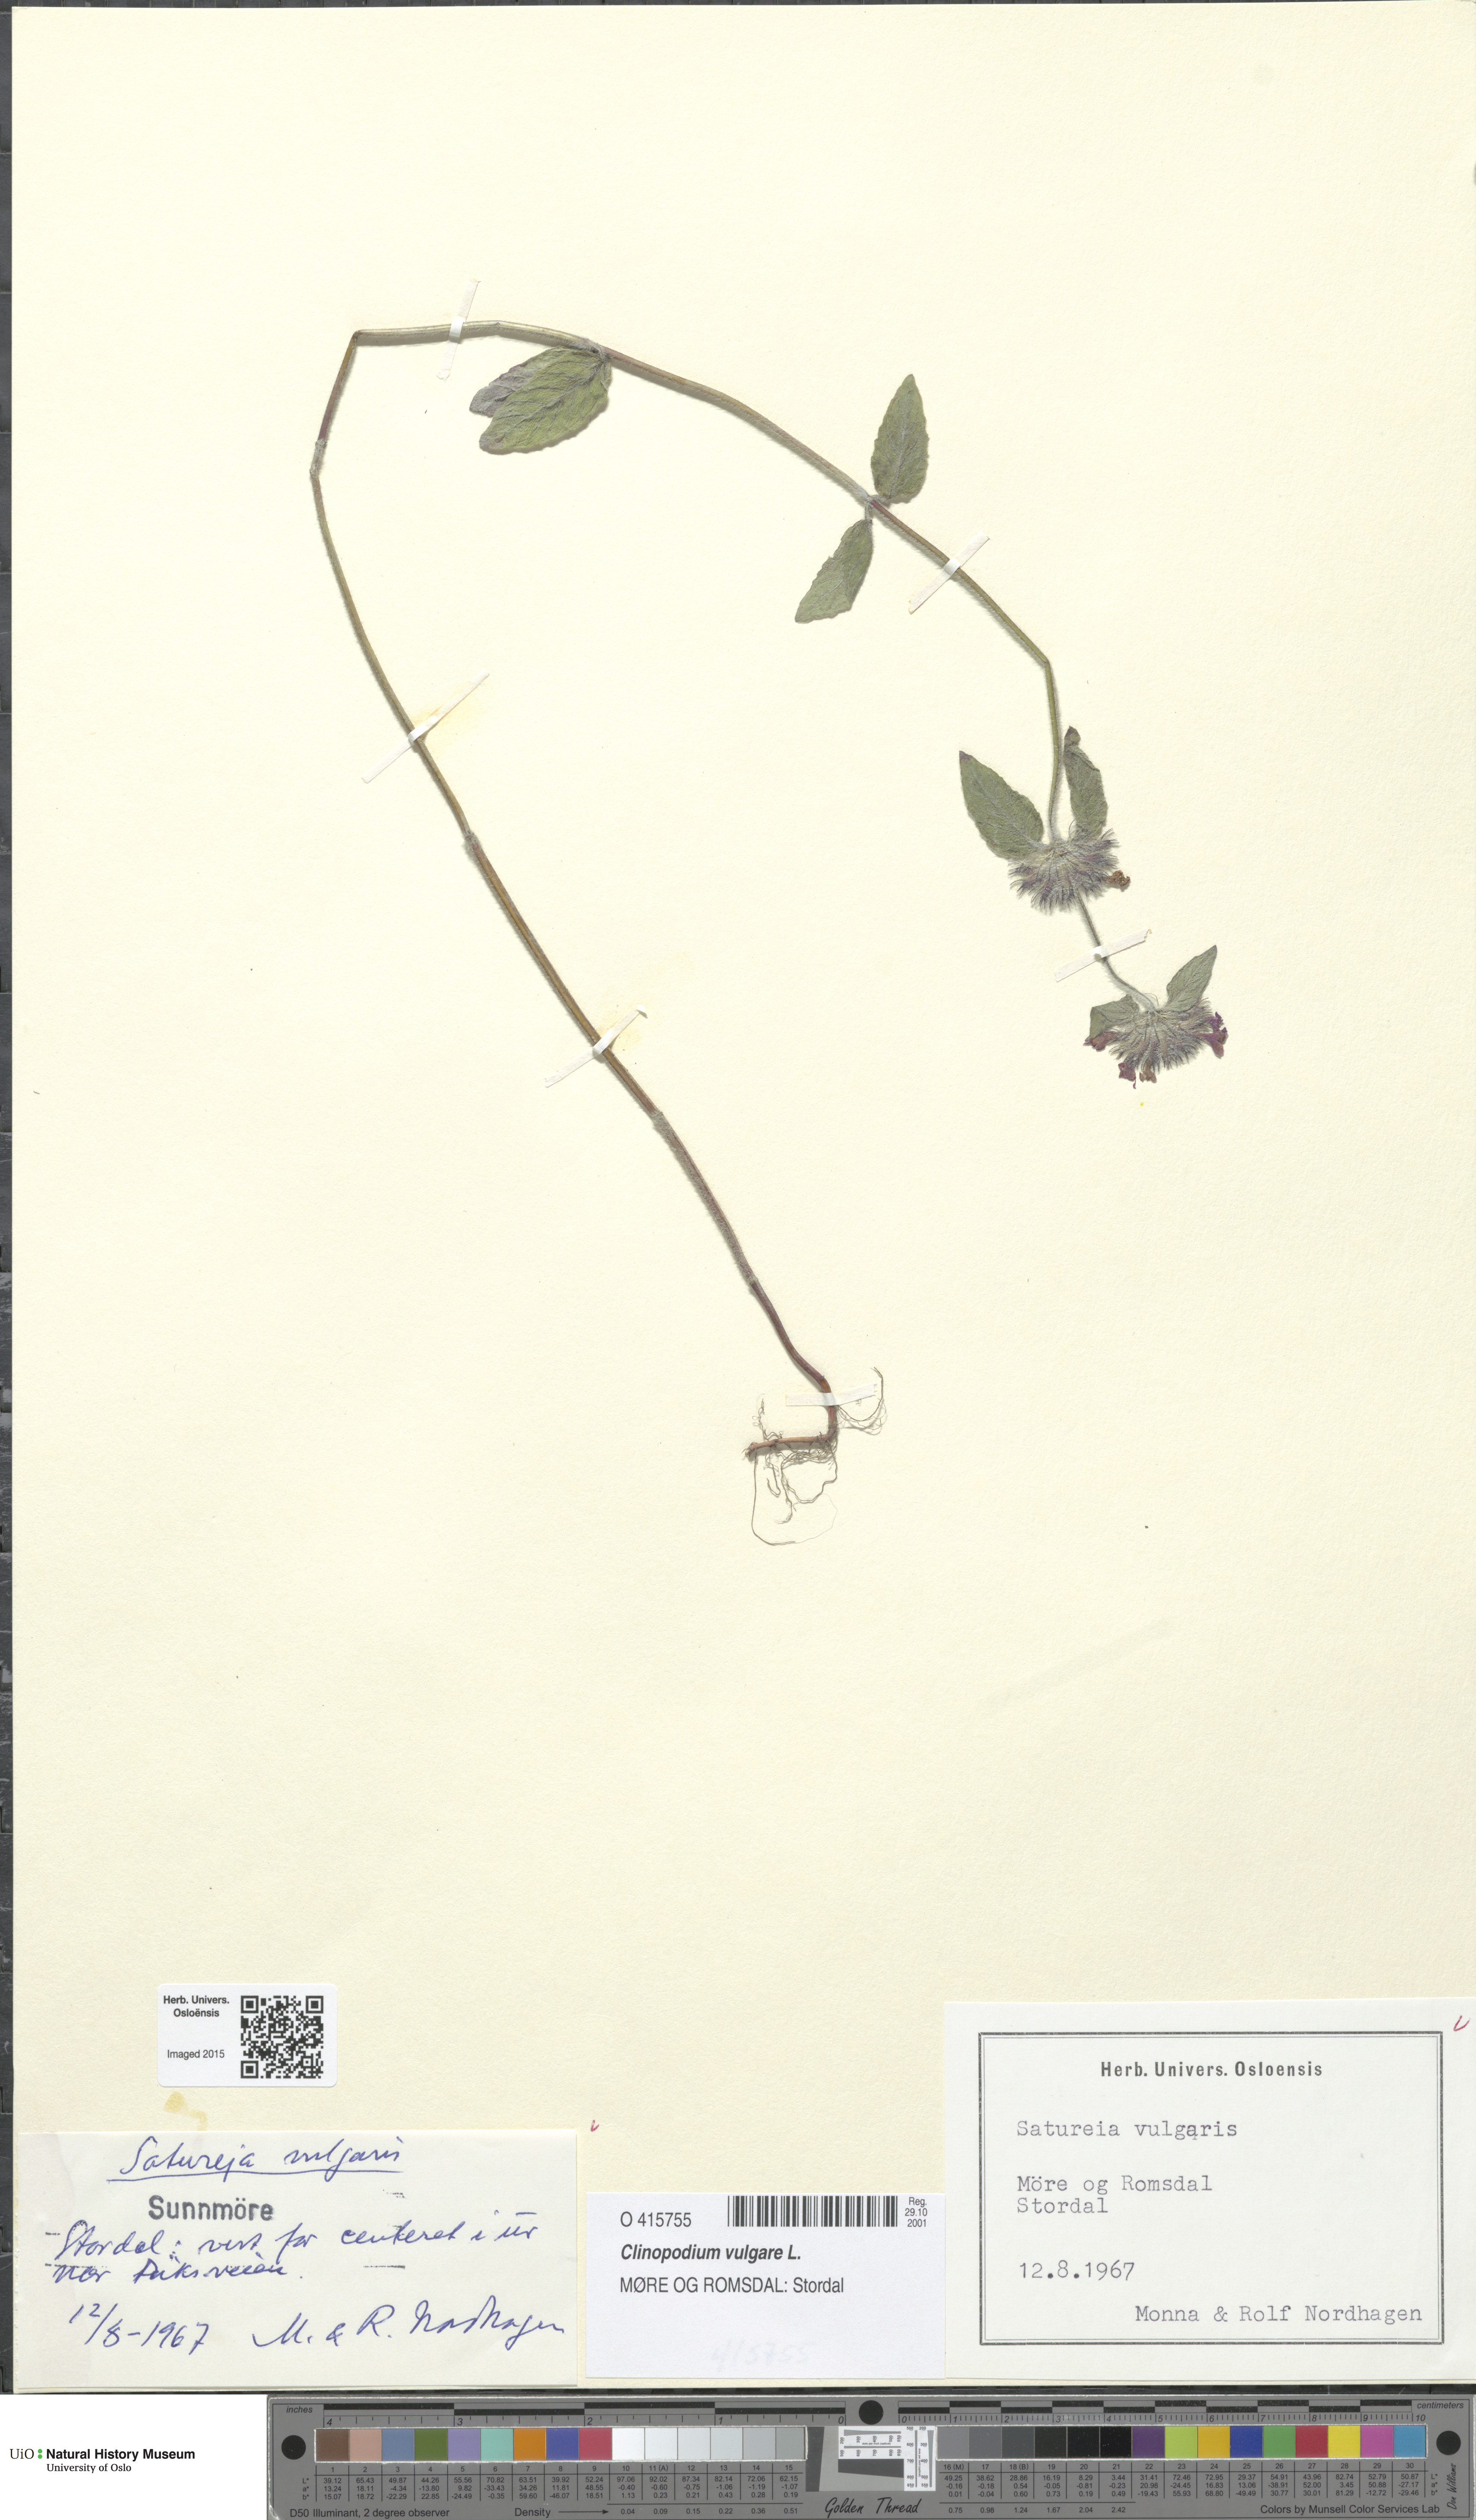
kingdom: Plantae
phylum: Tracheophyta
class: Magnoliopsida
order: Lamiales
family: Lamiaceae
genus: Clinopodium
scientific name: Clinopodium vulgare
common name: Wild basil
